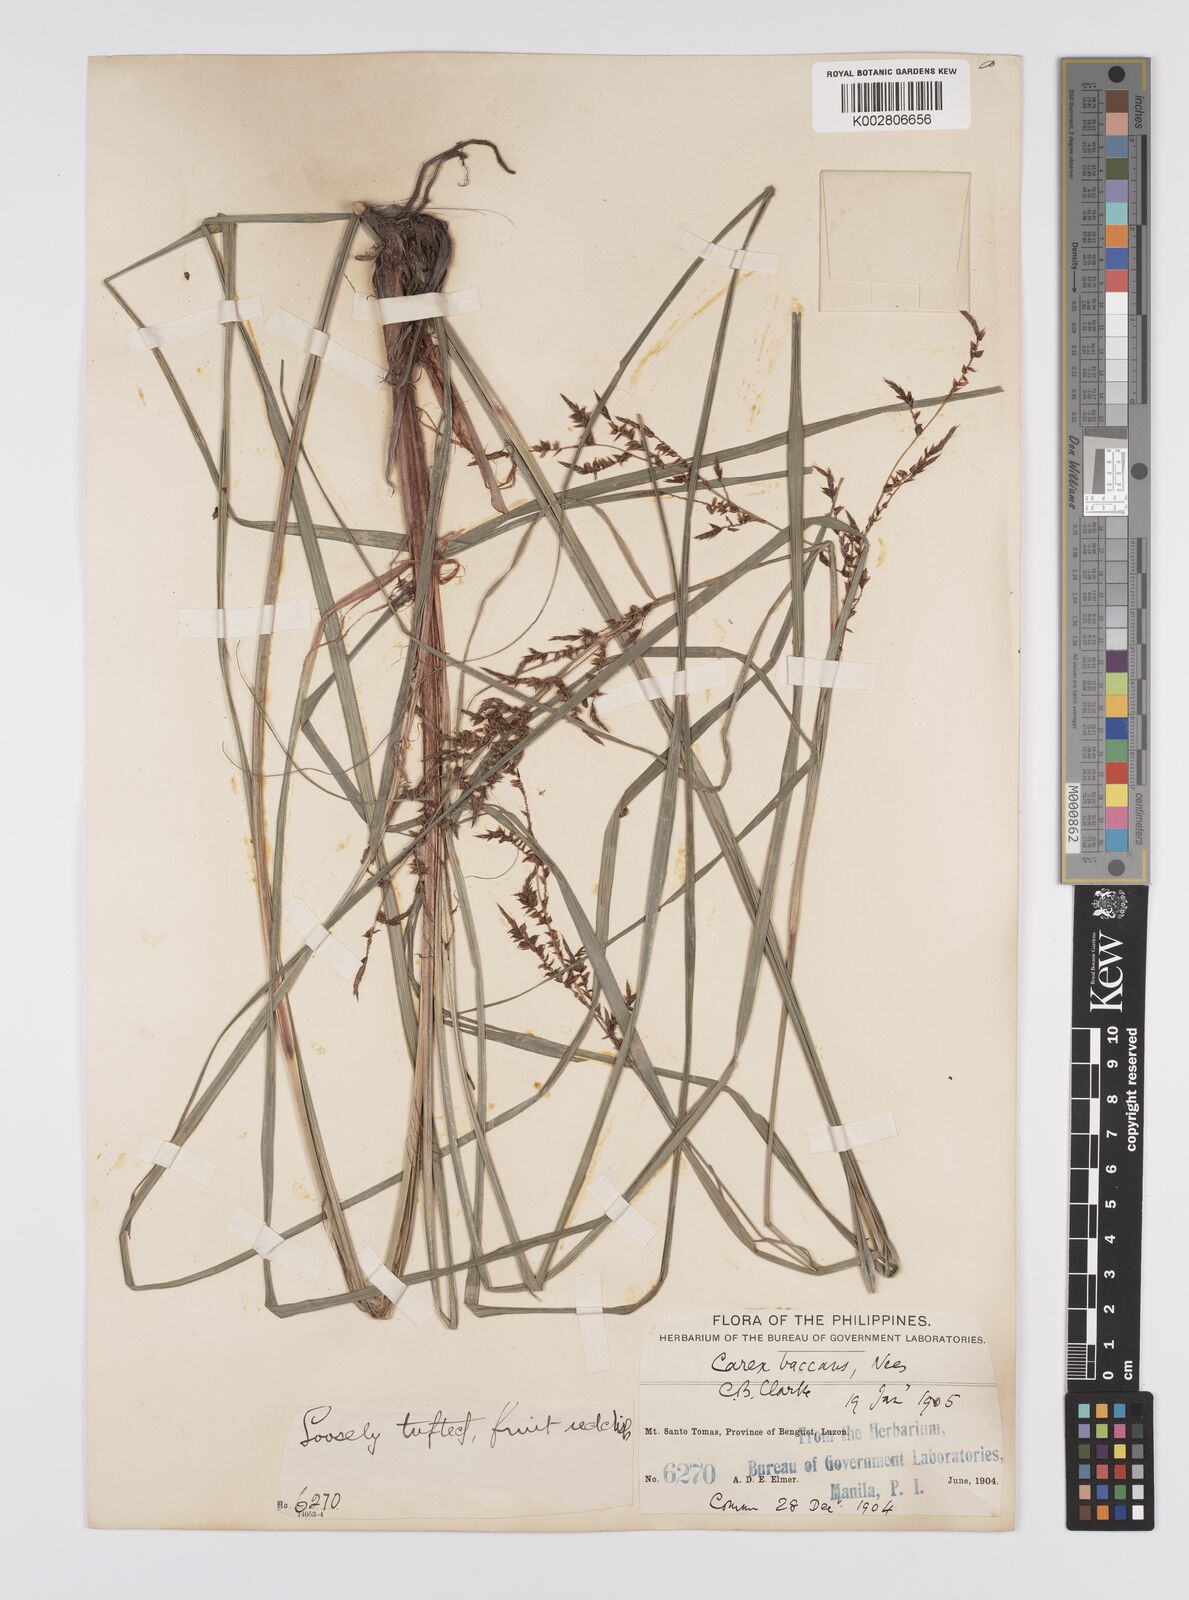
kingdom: Plantae
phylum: Tracheophyta
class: Liliopsida
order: Poales
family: Cyperaceae
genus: Carex
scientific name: Carex baccans
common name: Crimson seeded sedge
